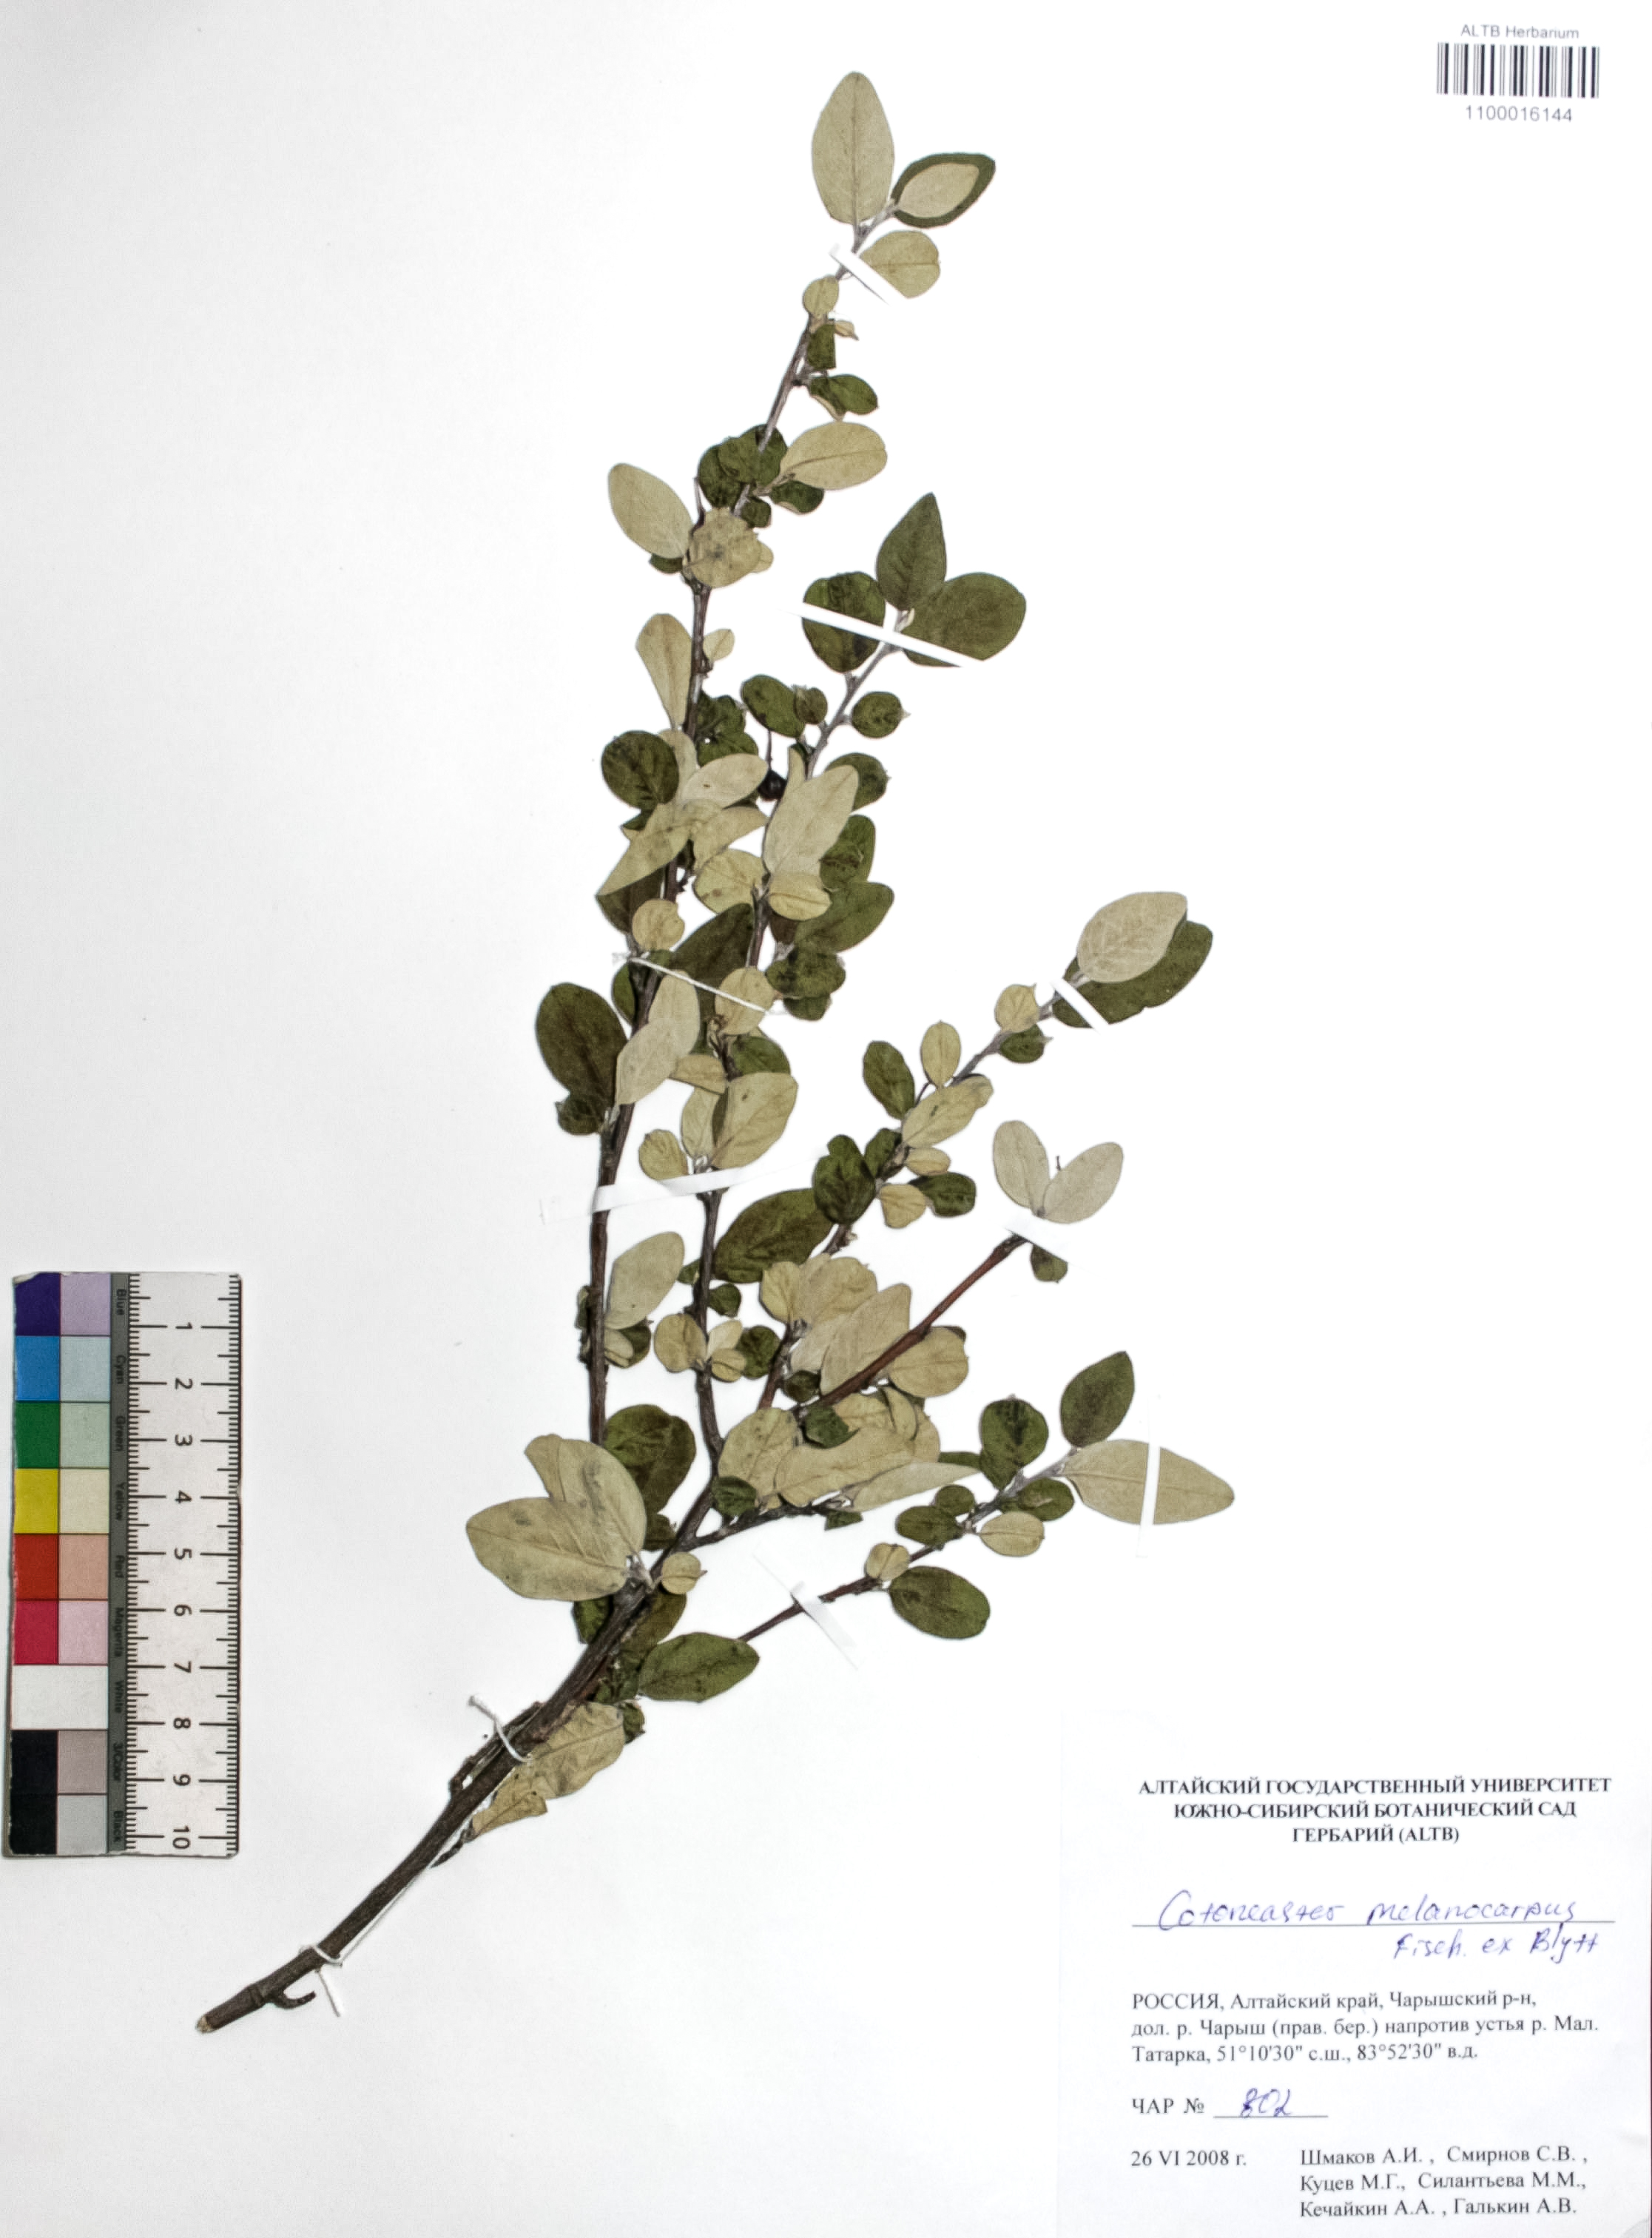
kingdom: Plantae
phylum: Tracheophyta
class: Magnoliopsida
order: Rosales
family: Rosaceae
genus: Cotoneaster
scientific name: Cotoneaster niger
